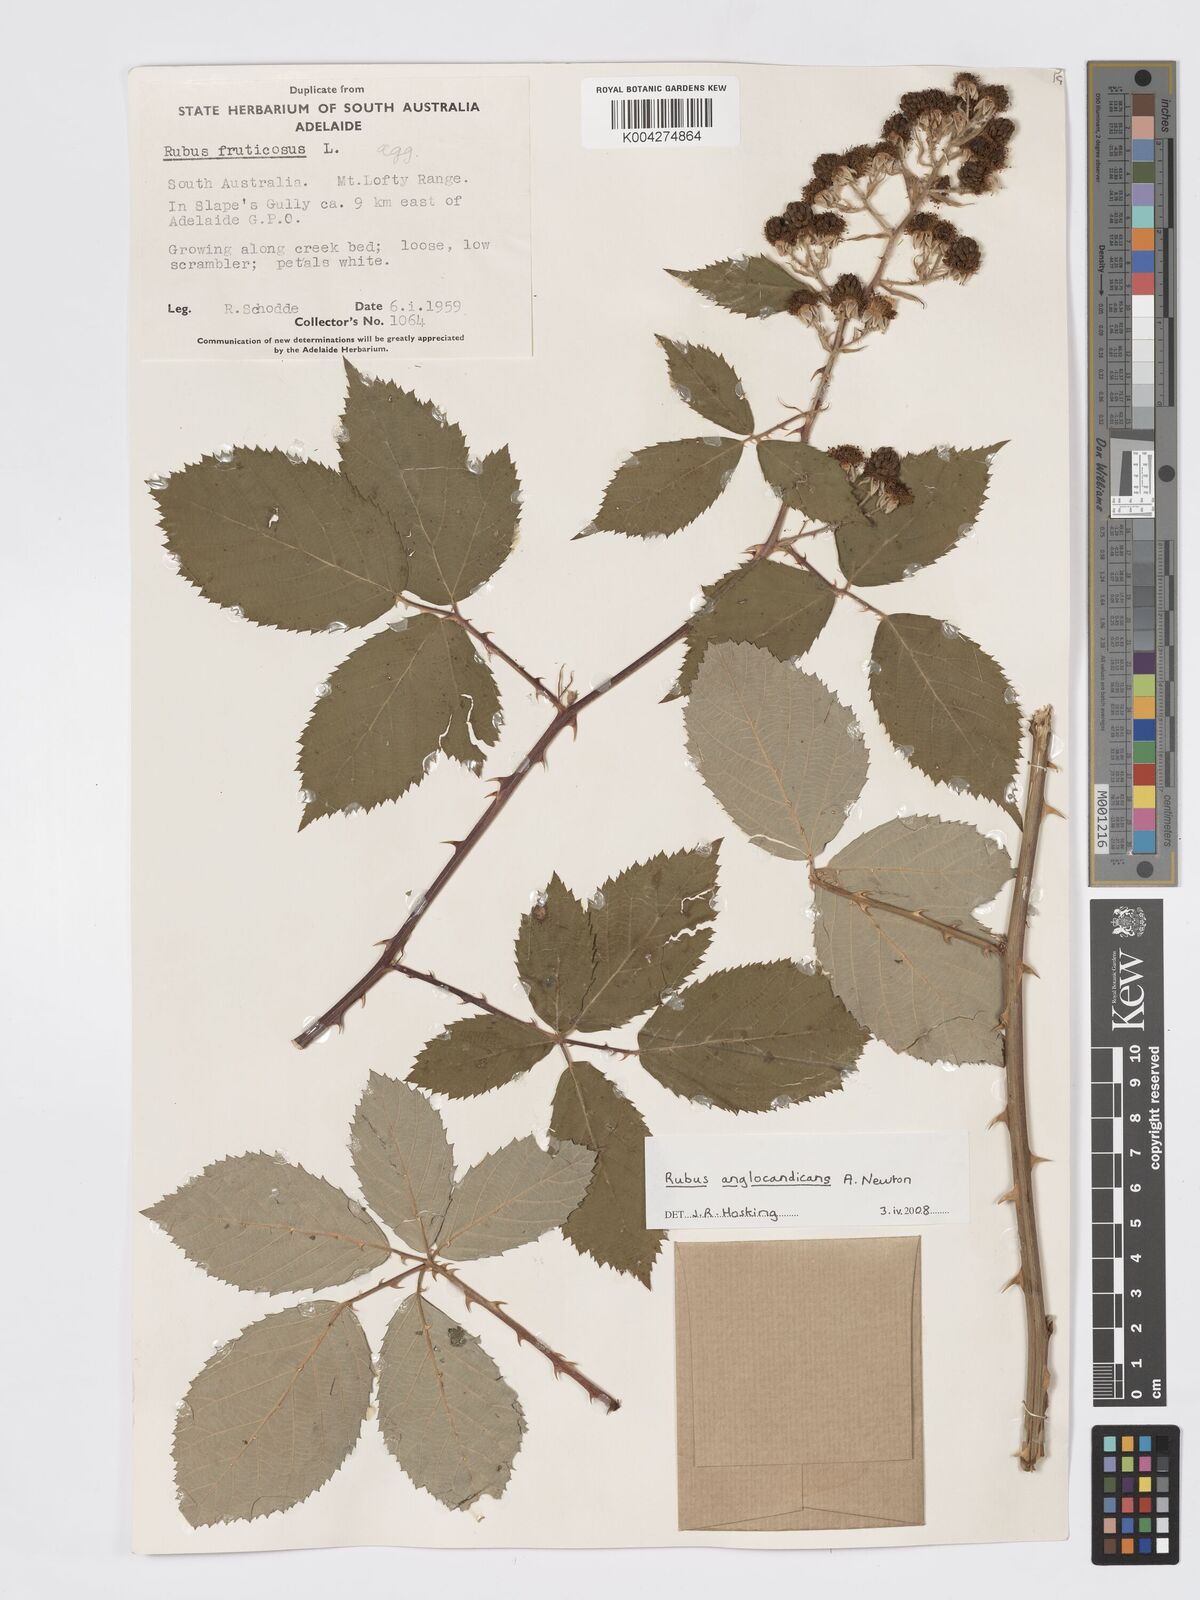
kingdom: Plantae
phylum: Tracheophyta
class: Magnoliopsida
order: Rosales
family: Rosaceae
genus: Rubus
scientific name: Rubus anglocandicans
